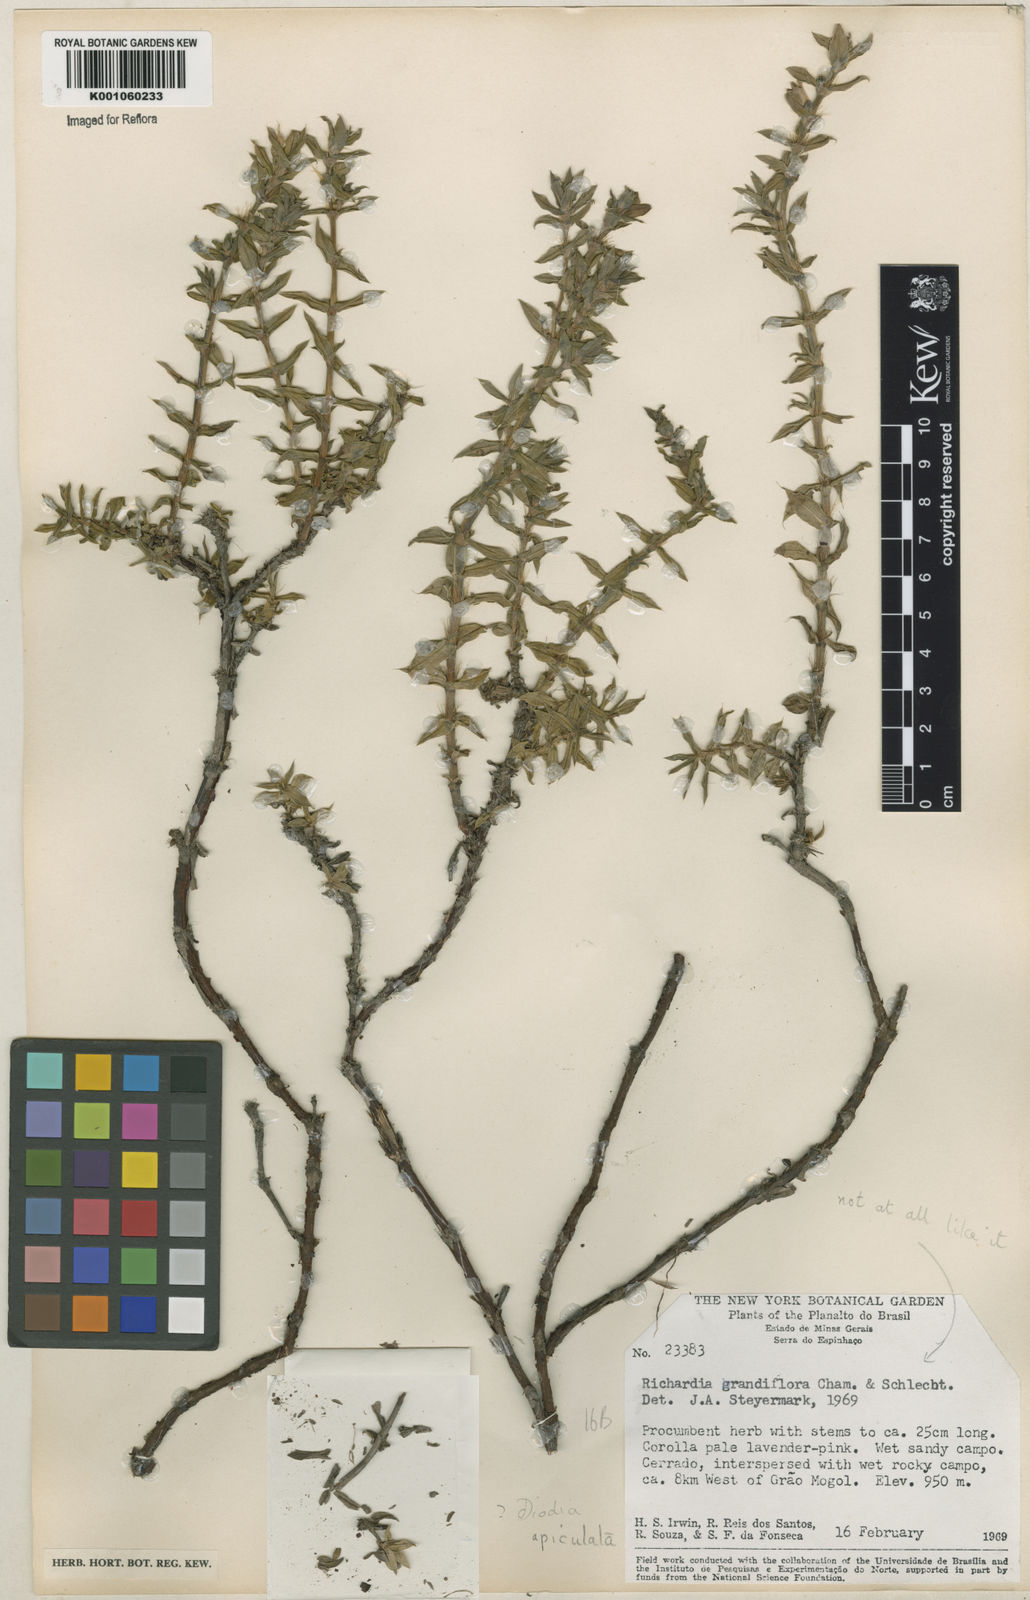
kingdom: Plantae
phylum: Tracheophyta
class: Magnoliopsida
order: Gentianales
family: Rubiaceae
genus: Hexasepalum
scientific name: Hexasepalum apiculatum
